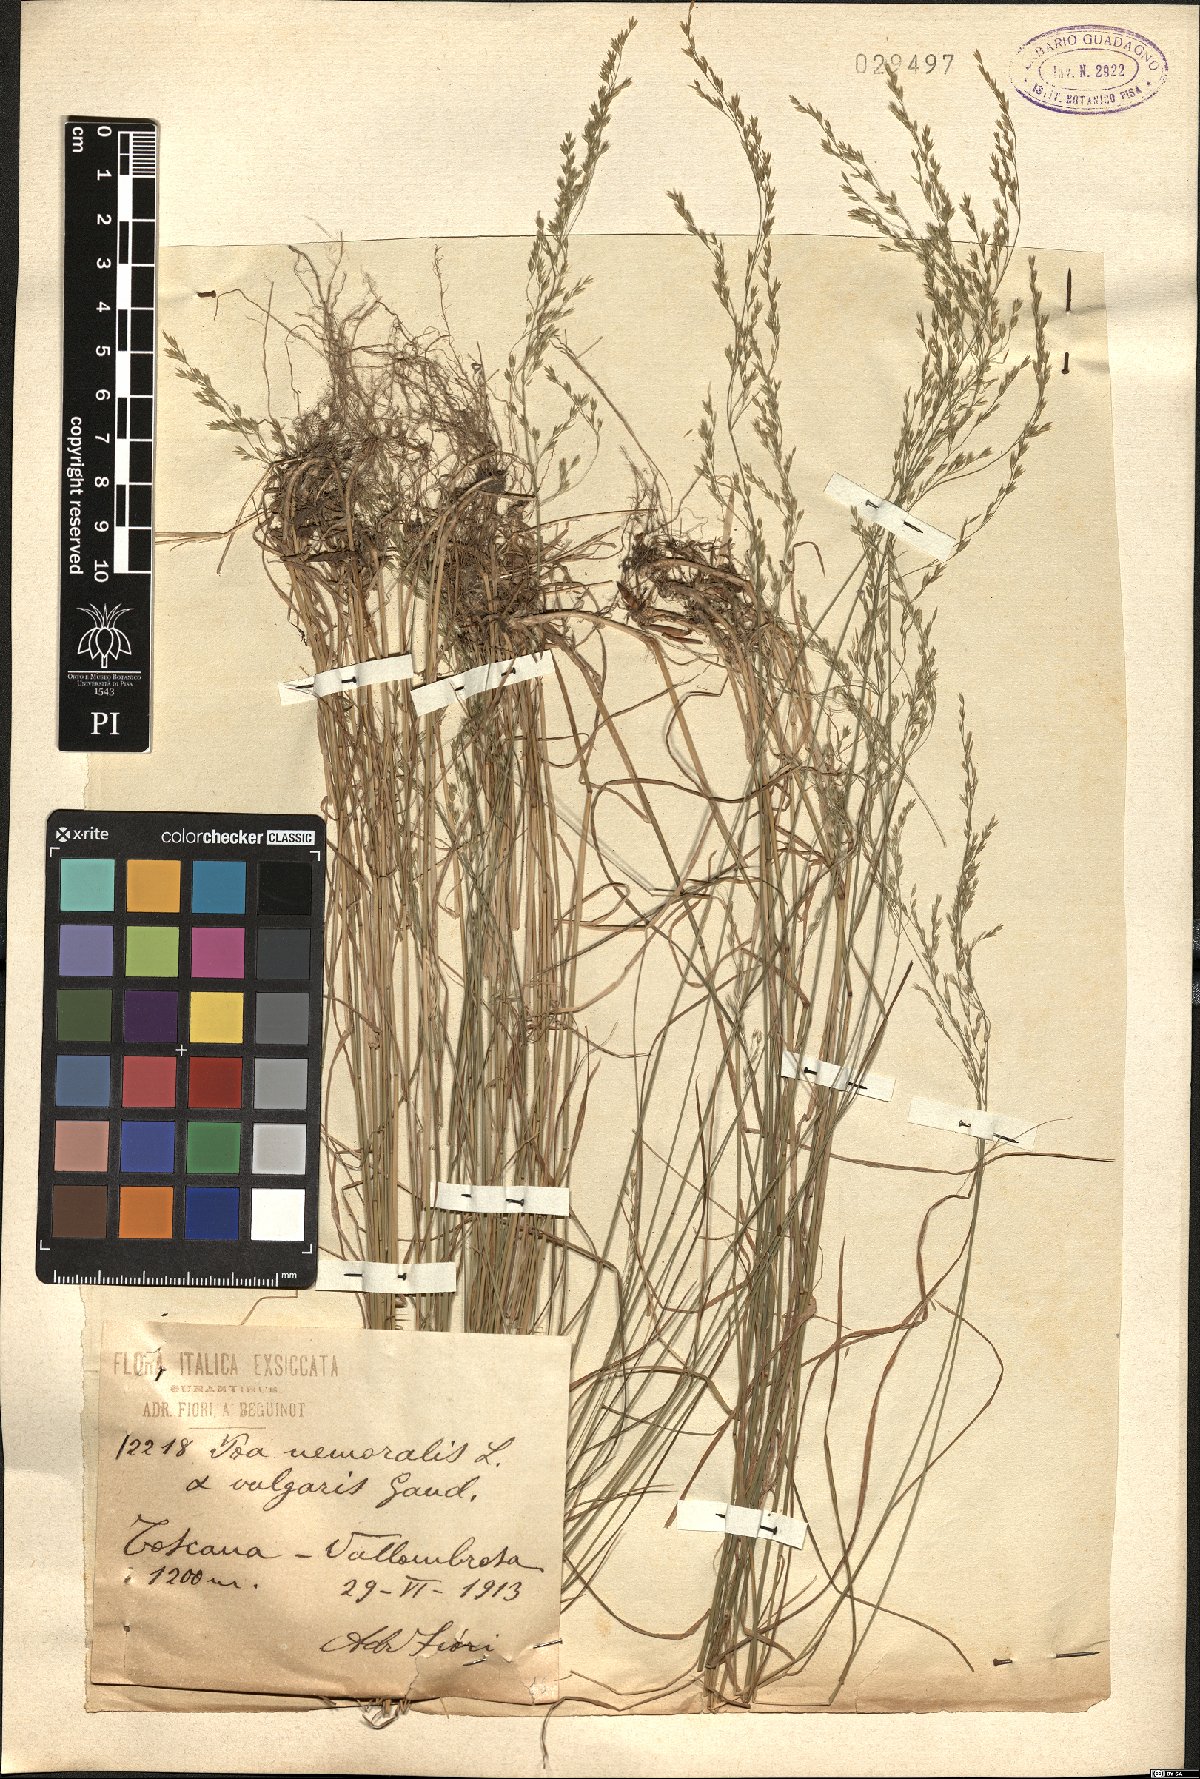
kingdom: Plantae
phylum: Tracheophyta
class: Liliopsida
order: Poales
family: Poaceae
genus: Poa
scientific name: Poa nemoralis
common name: Wood bluegrass
